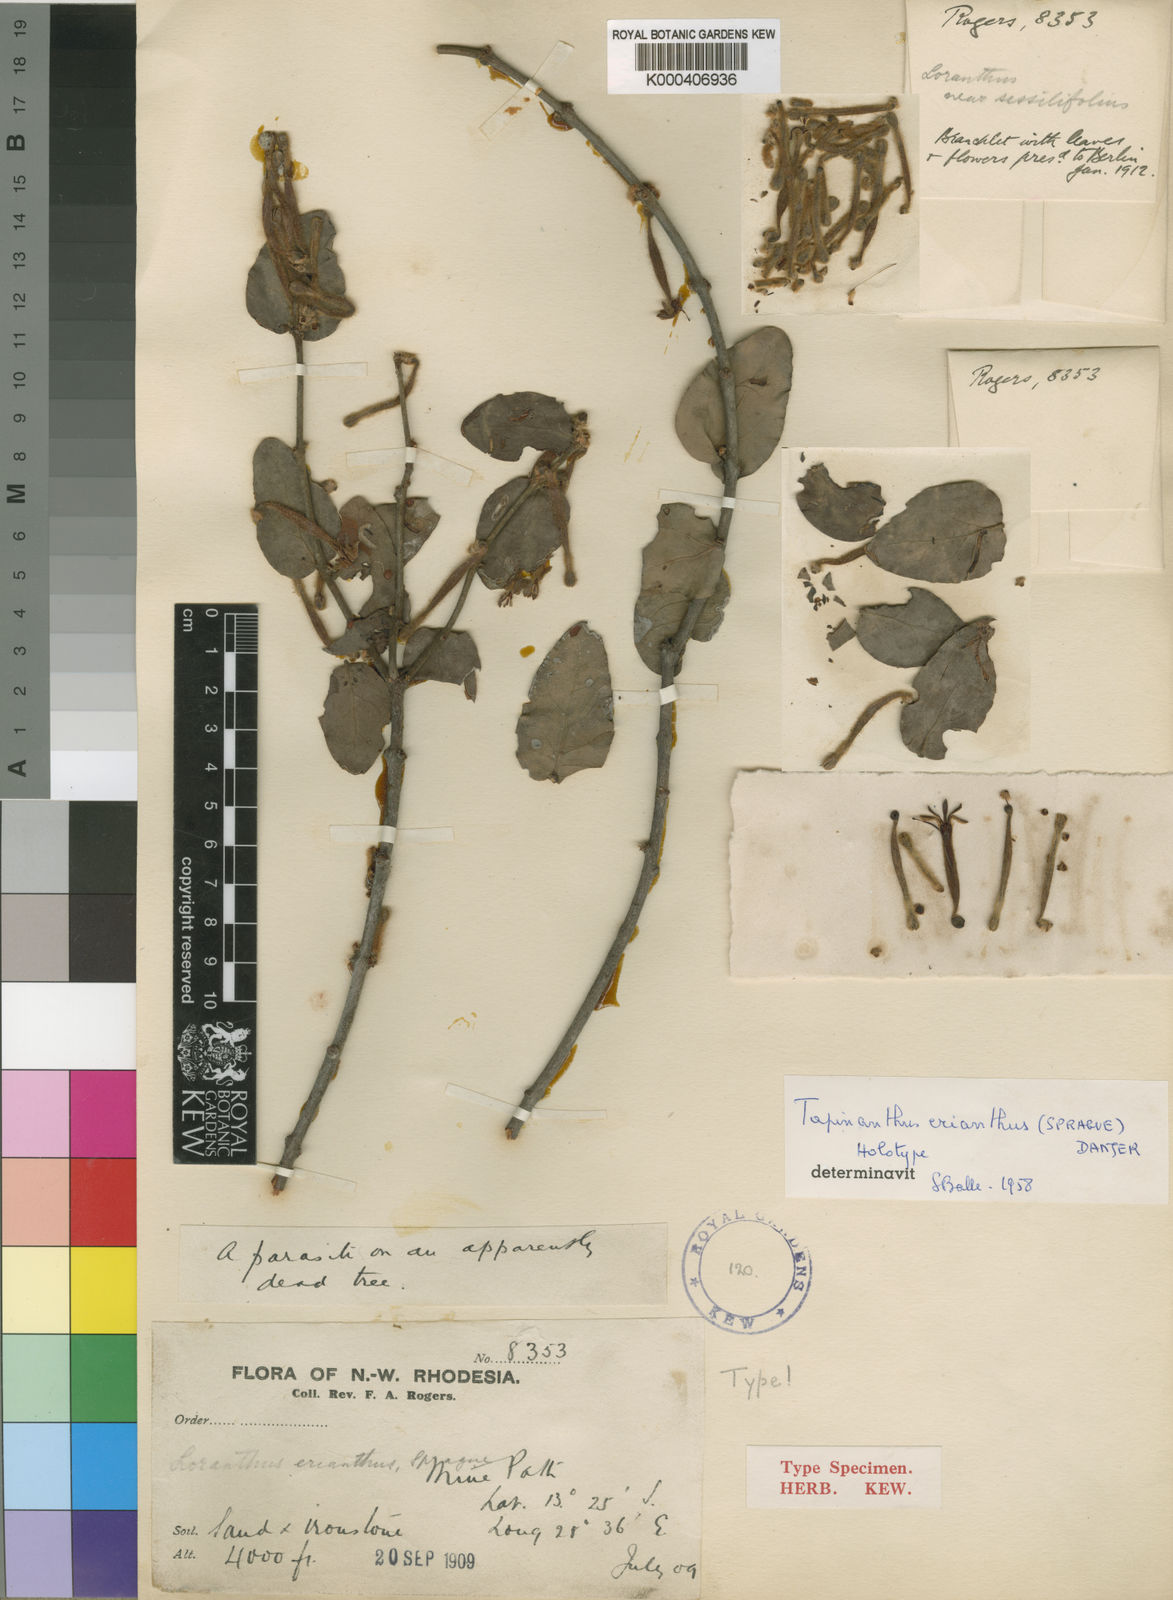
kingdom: Plantae
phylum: Tracheophyta
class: Magnoliopsida
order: Santalales
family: Loranthaceae
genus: Tapinanthus
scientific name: Tapinanthus erianthus
